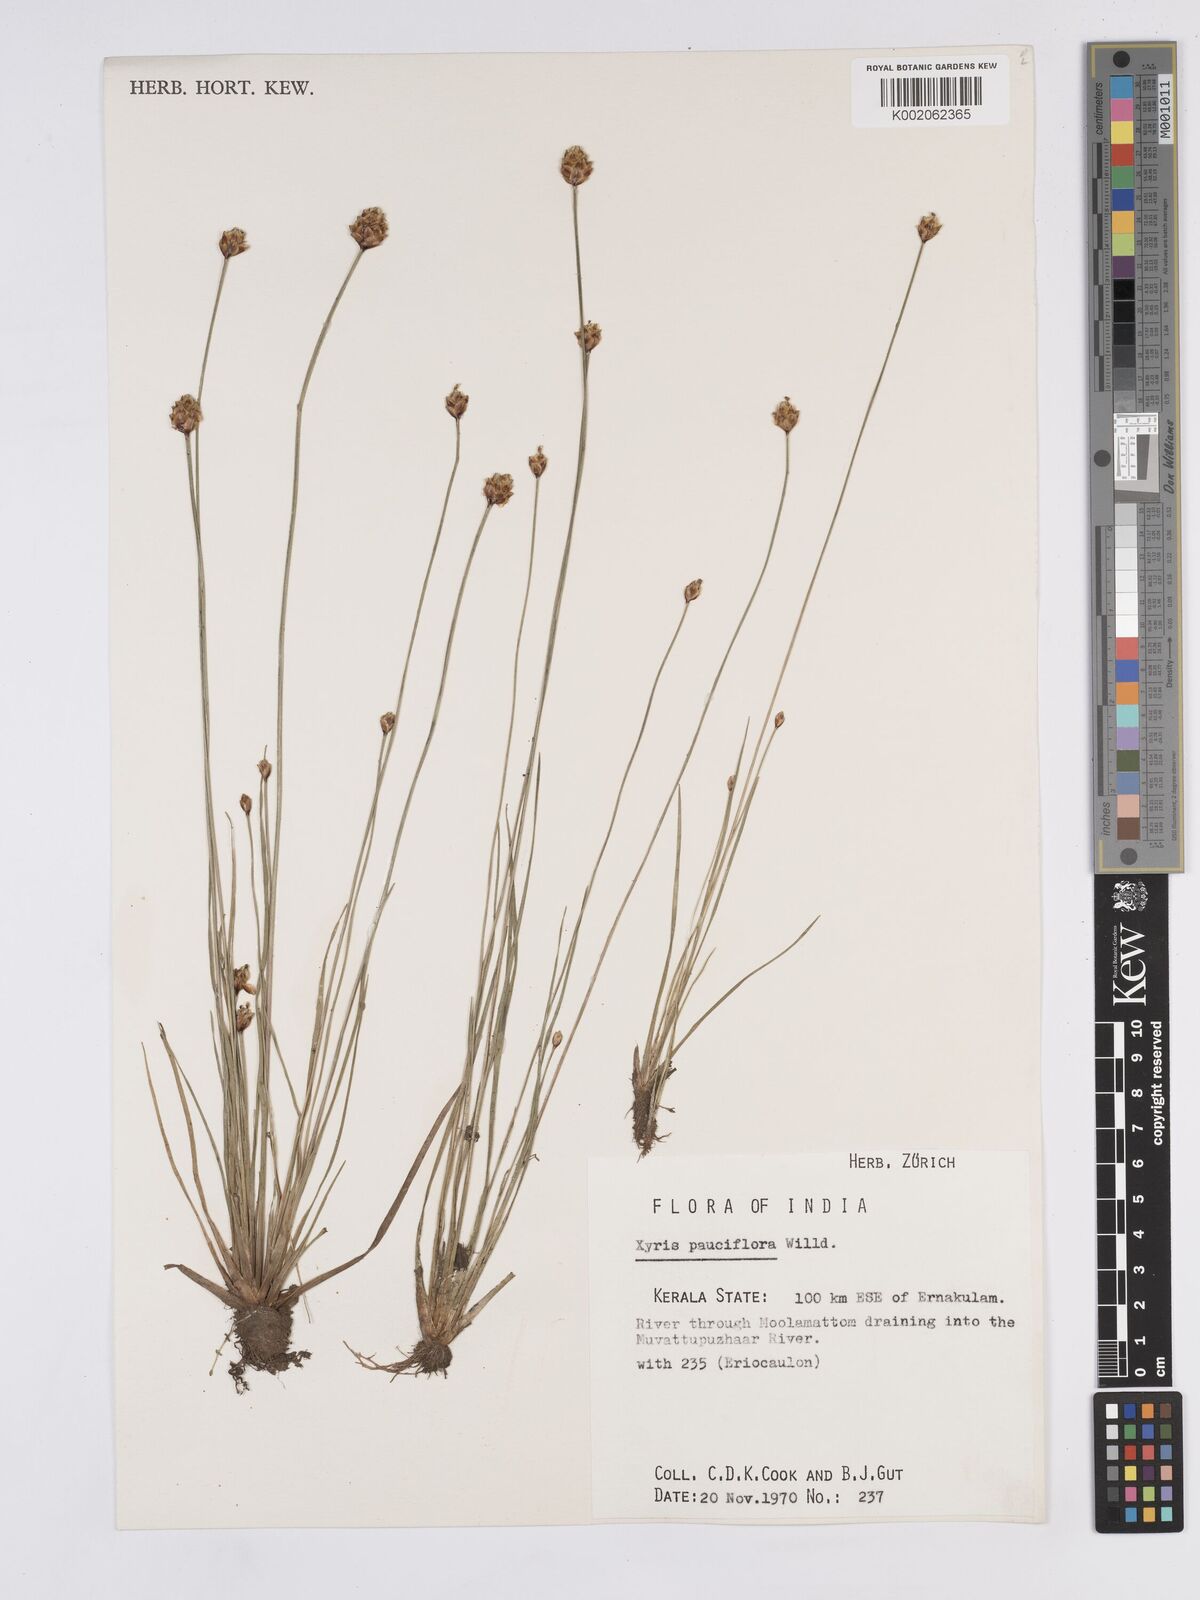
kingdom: Plantae
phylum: Tracheophyta
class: Liliopsida
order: Poales
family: Xyridaceae
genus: Xyris
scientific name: Xyris pauciflora
